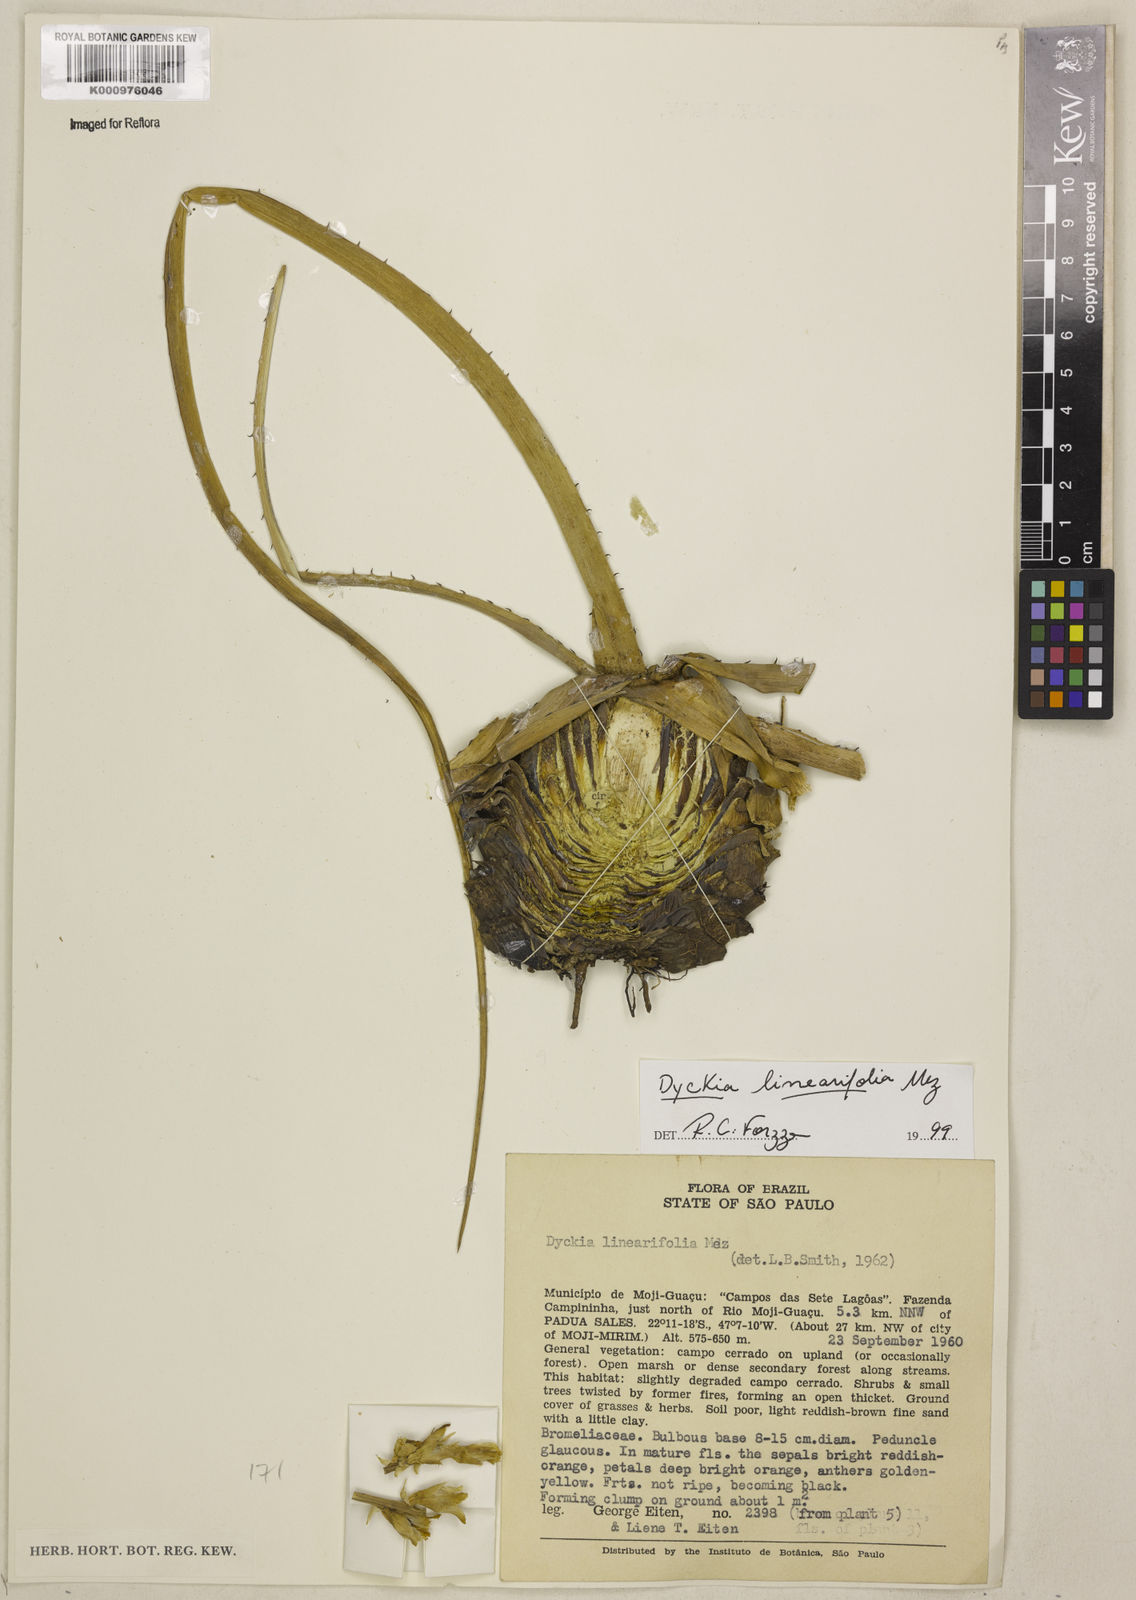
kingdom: Plantae
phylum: Tracheophyta
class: Liliopsida
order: Poales
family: Bromeliaceae
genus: Dyckia
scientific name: Dyckia linearifolia
